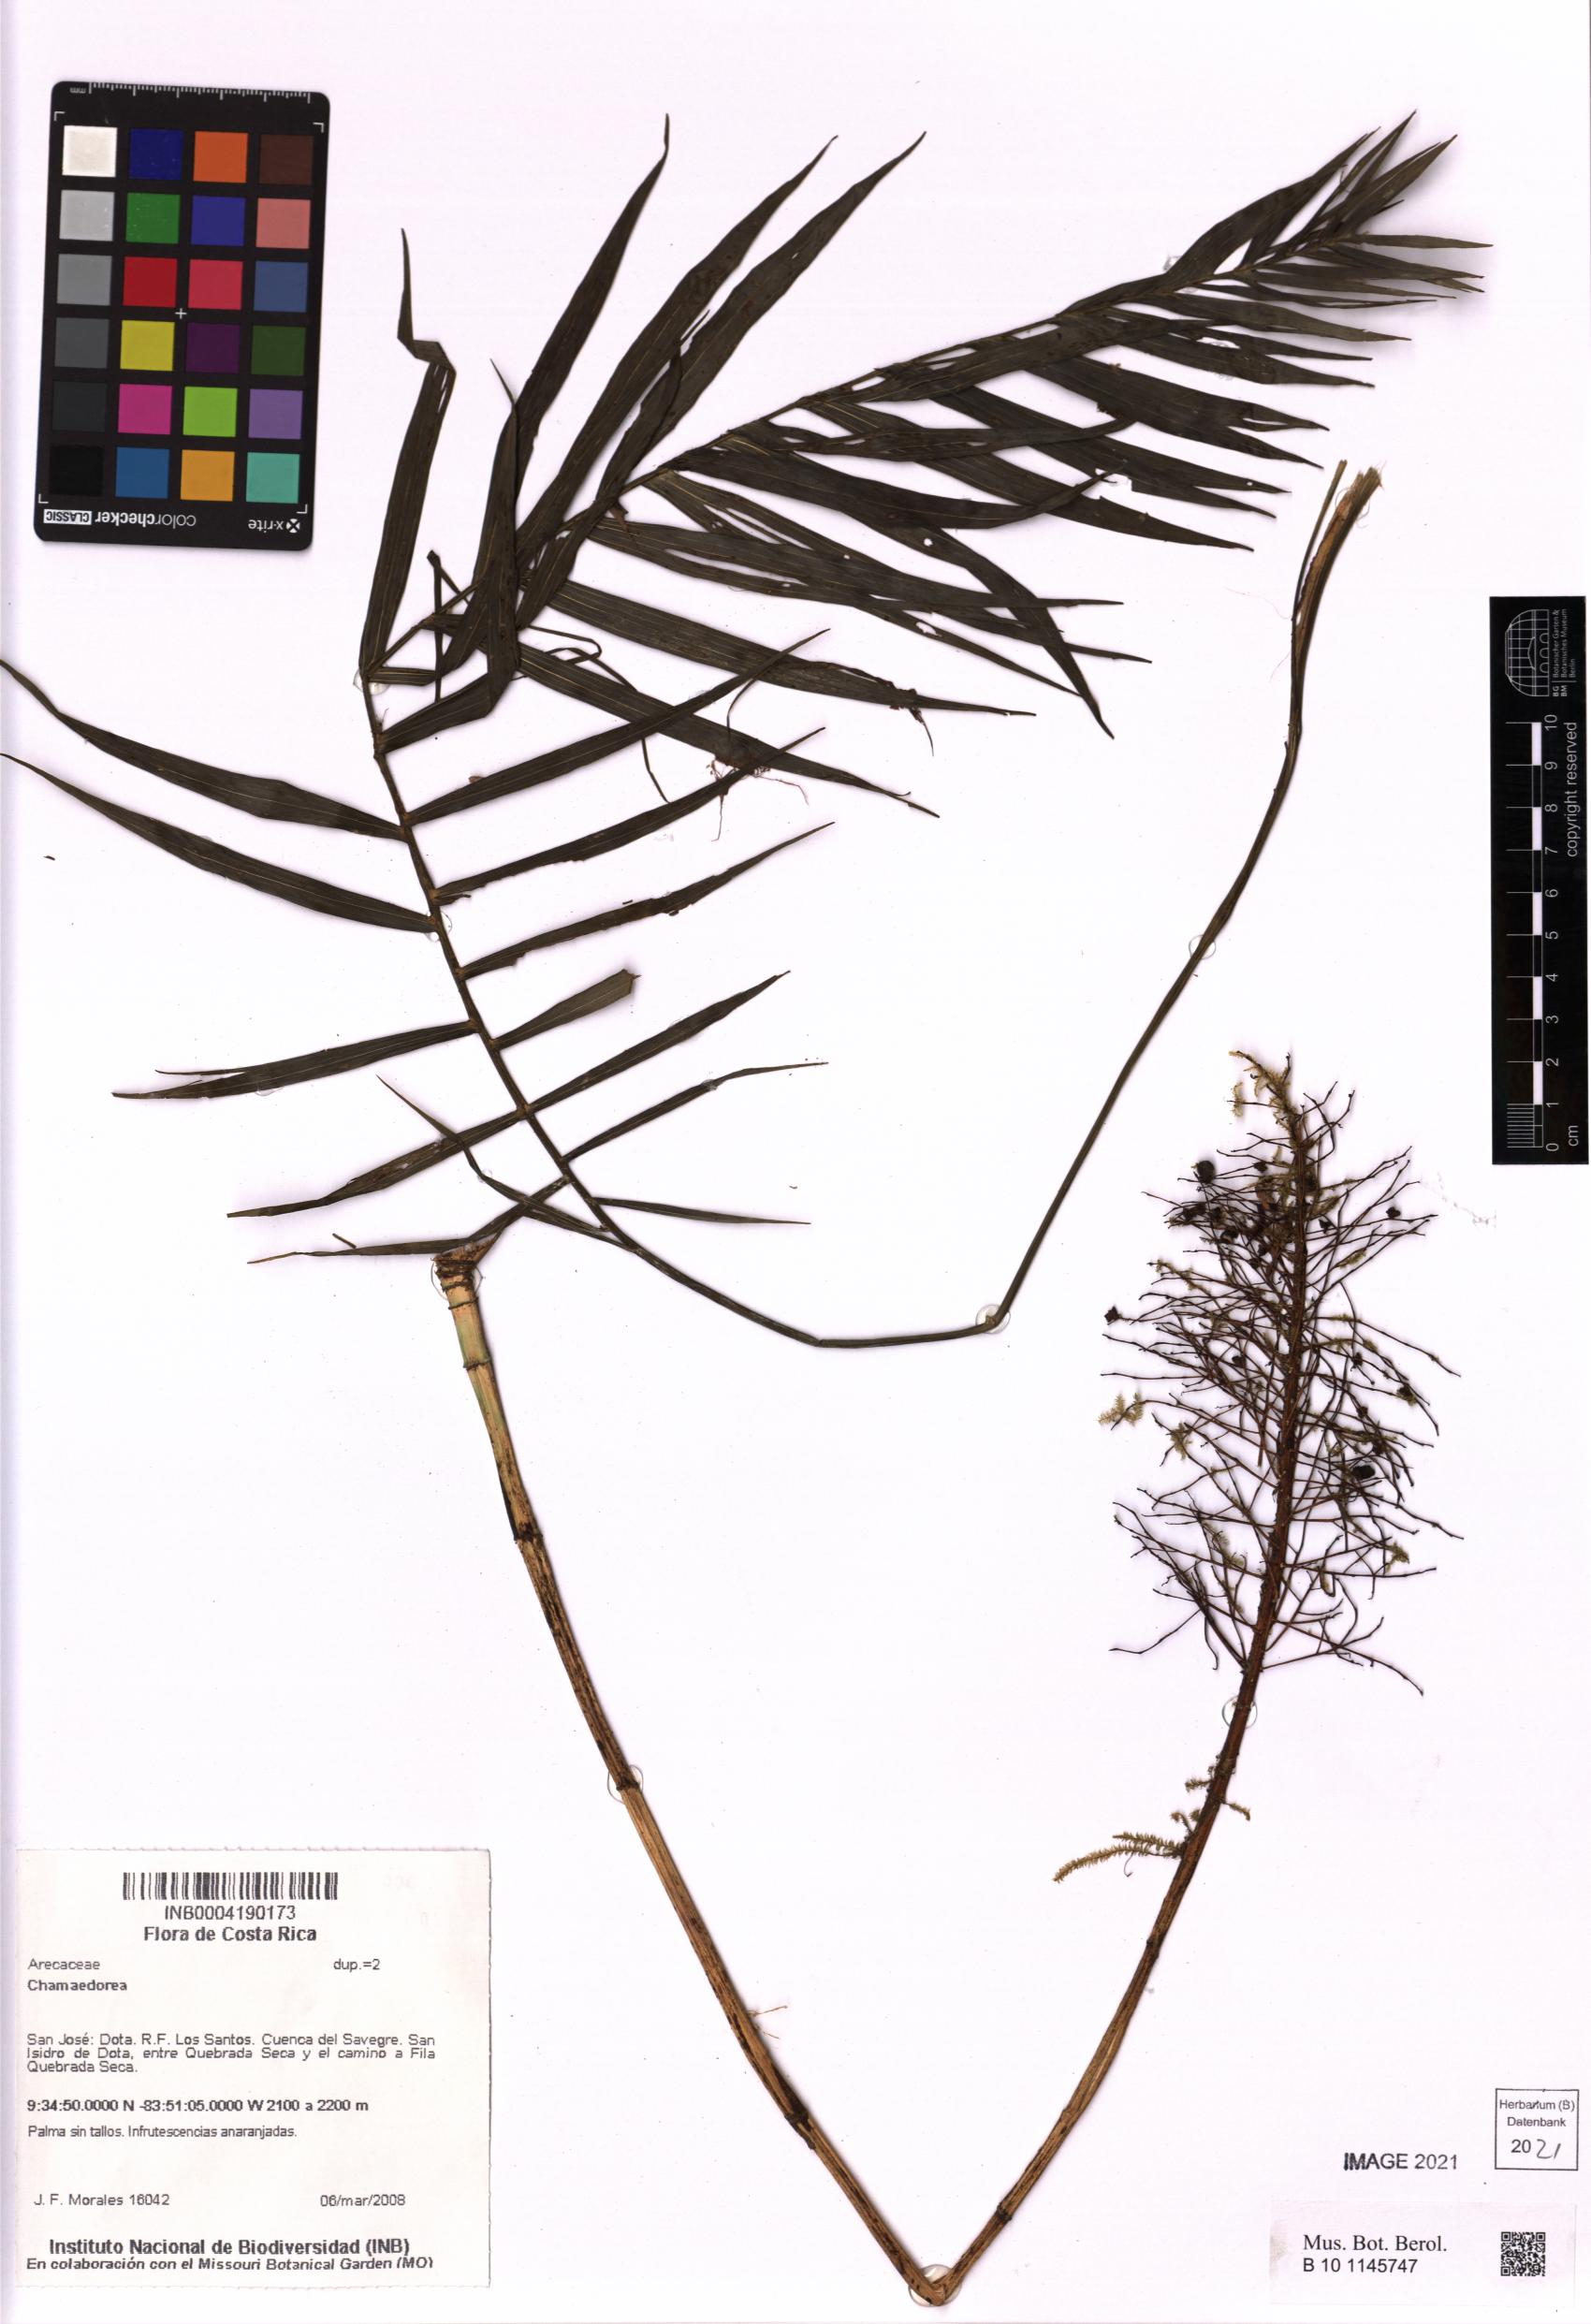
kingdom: Plantae
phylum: Tracheophyta
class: Liliopsida
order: Arecales
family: Arecaceae
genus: Chamaedorea
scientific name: Chamaedorea
